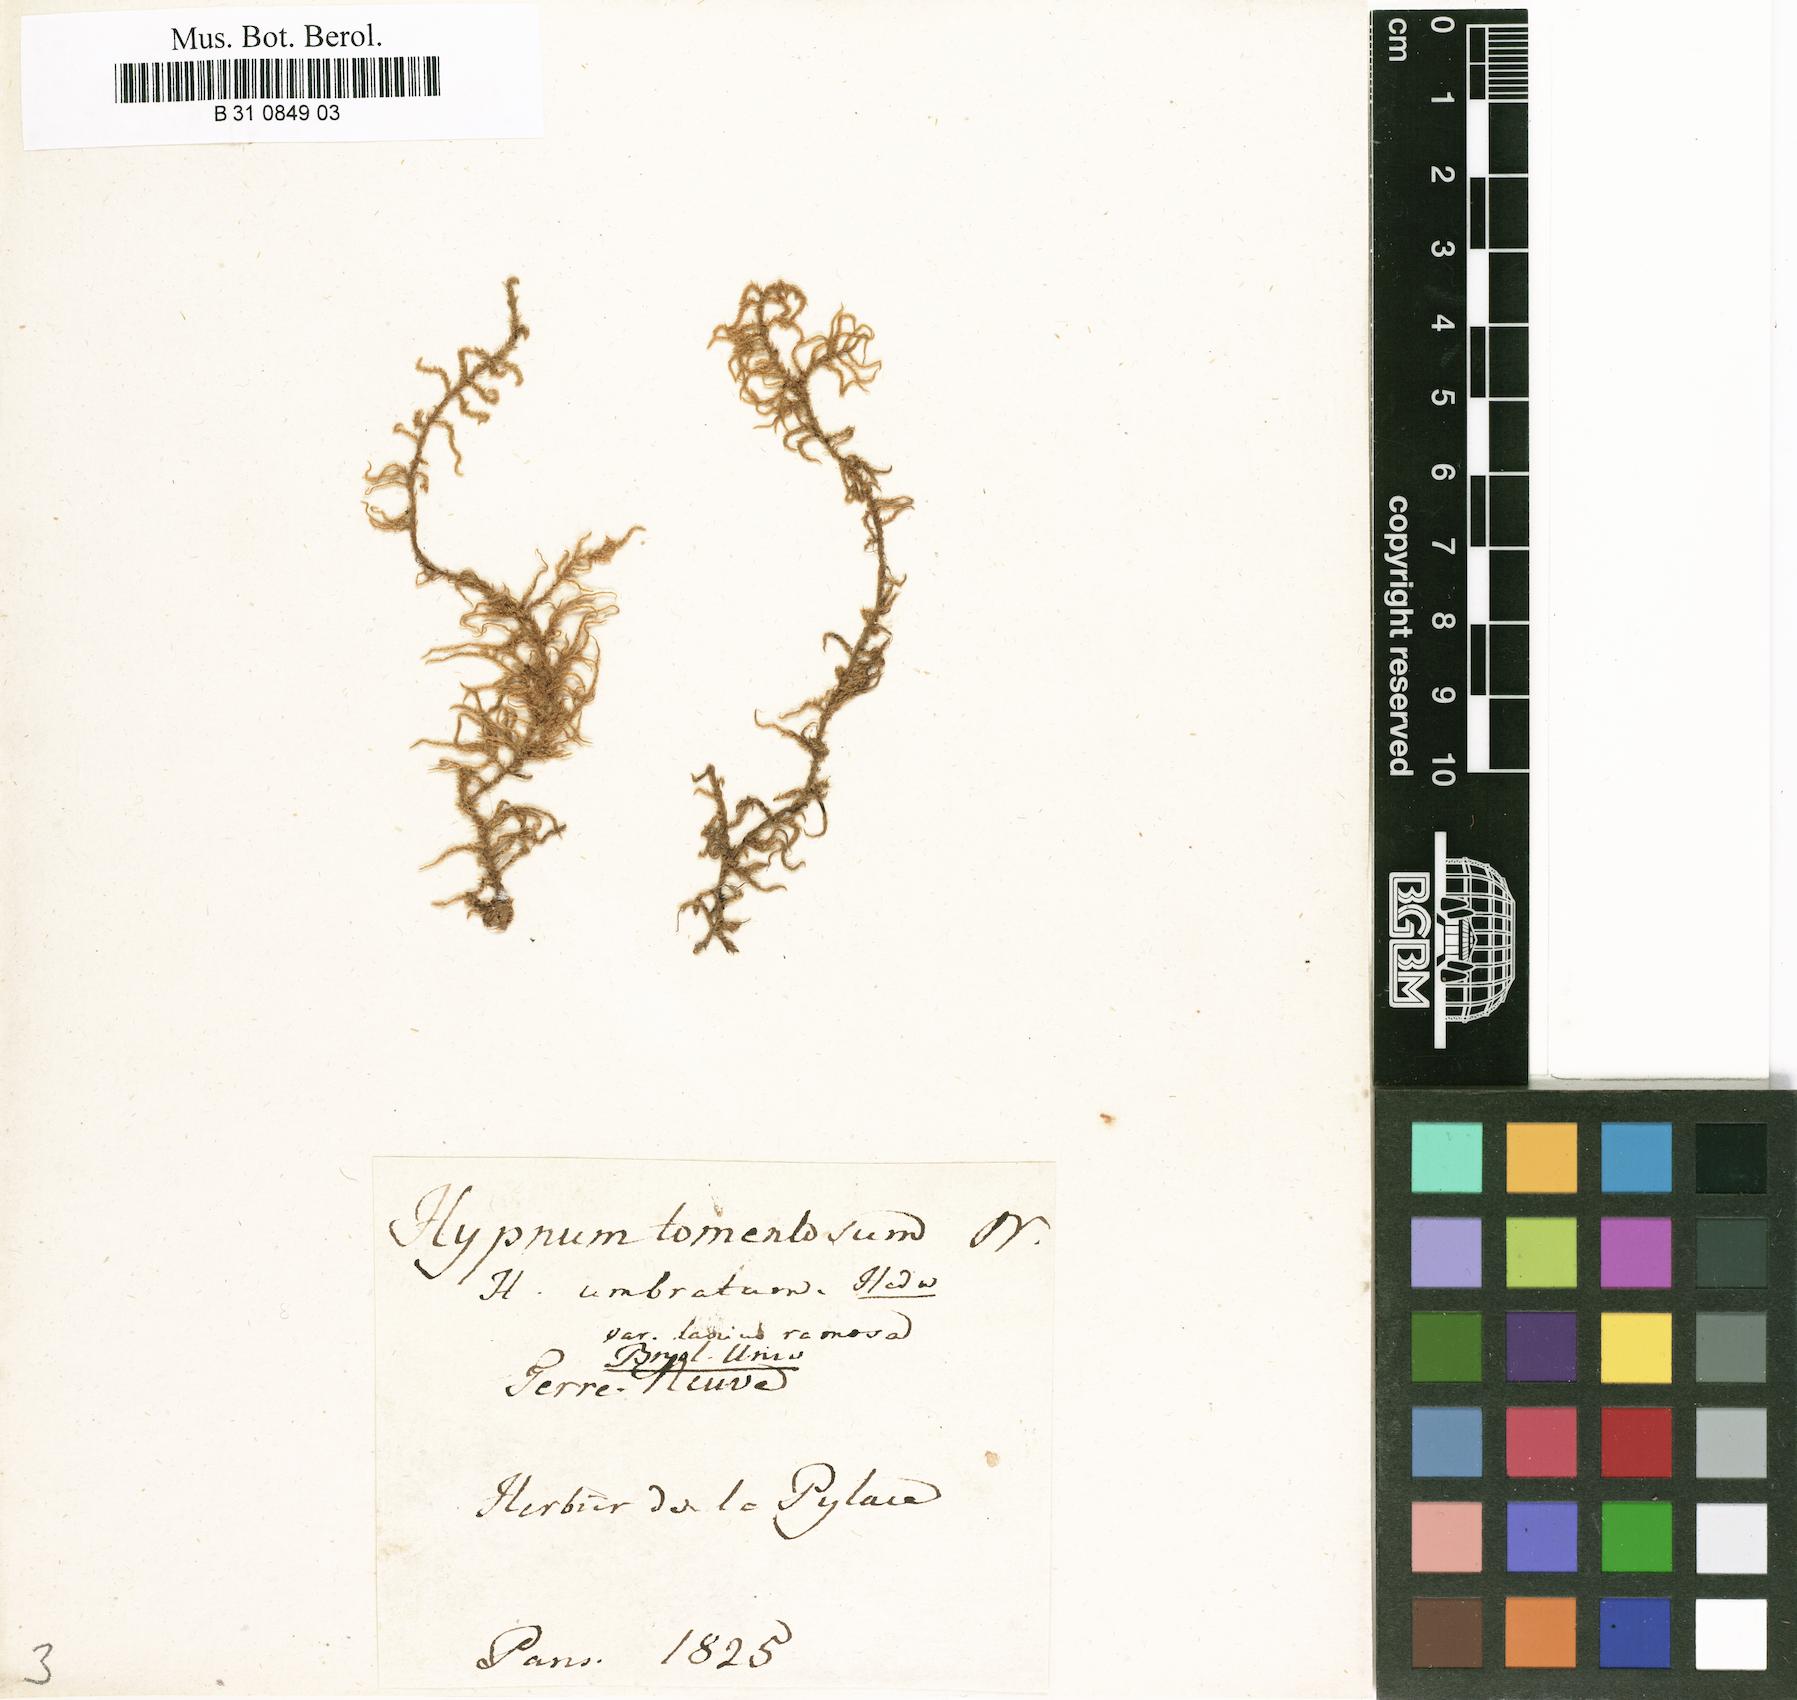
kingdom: Plantae
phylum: Bryophyta
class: Bryopsida
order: Hypnales
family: Hylocomiaceae
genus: Hylocomiastrum
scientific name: Hylocomiastrum umbratum
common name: Shaded woods moss
